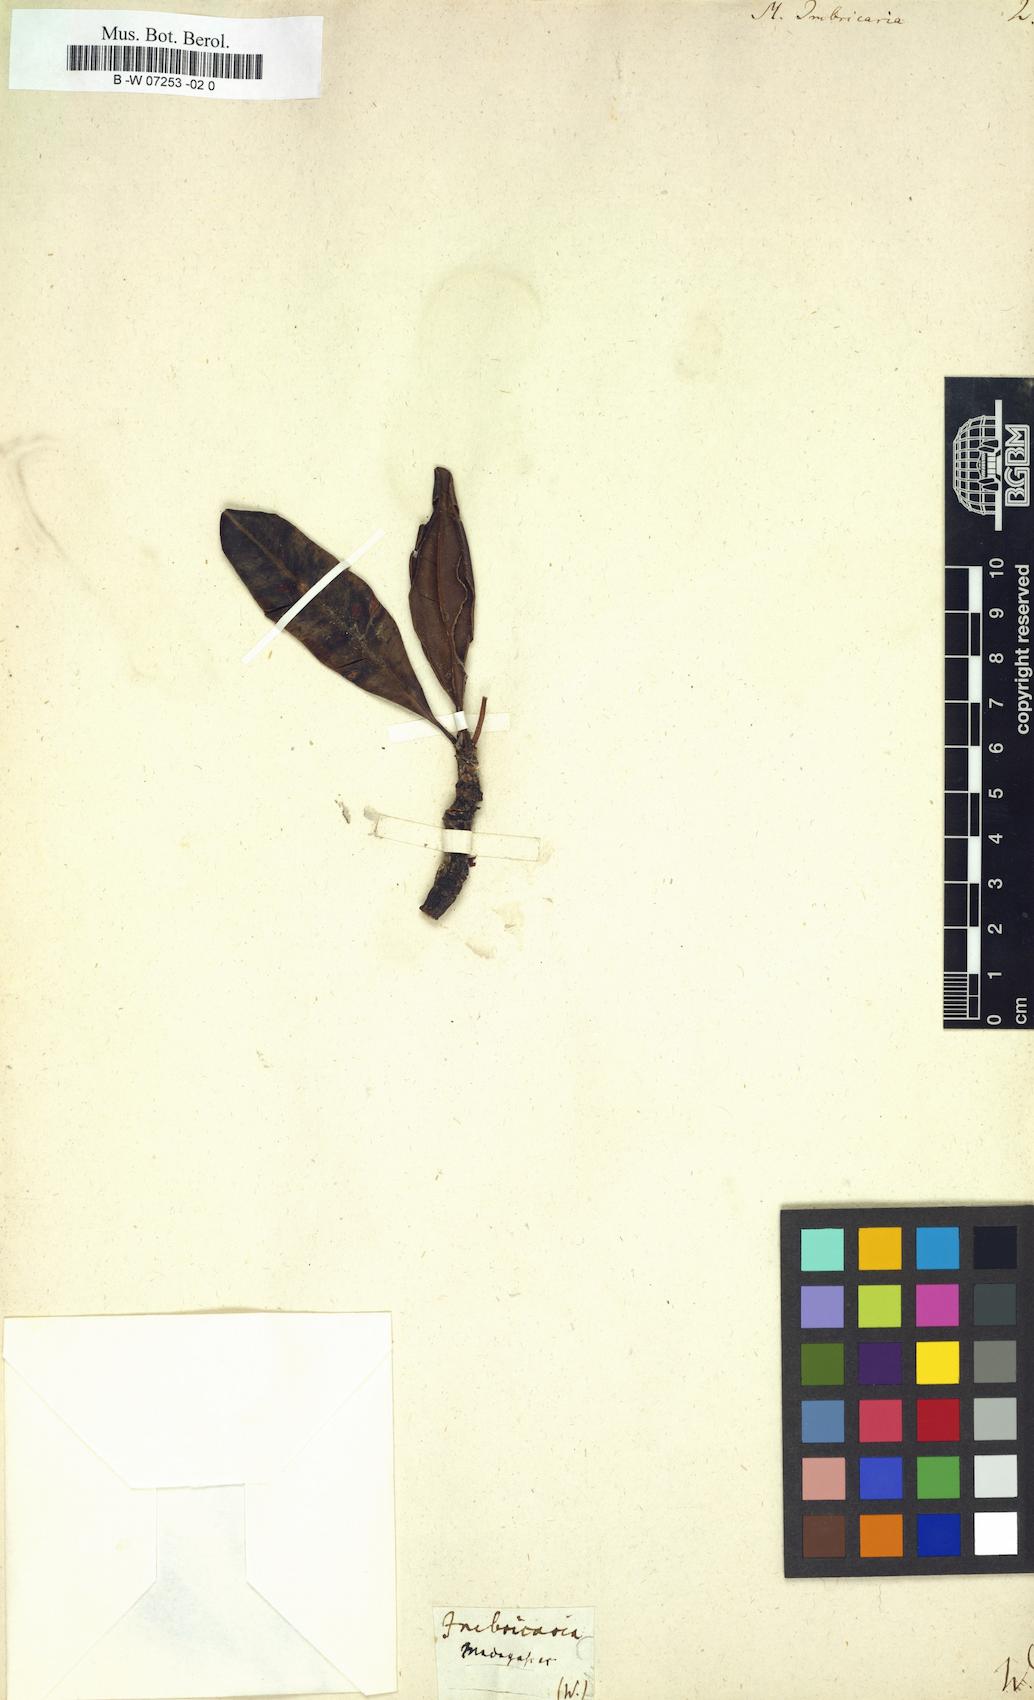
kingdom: Plantae
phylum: Tracheophyta
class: Magnoliopsida
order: Ericales
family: Sapotaceae
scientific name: Sapotaceae
